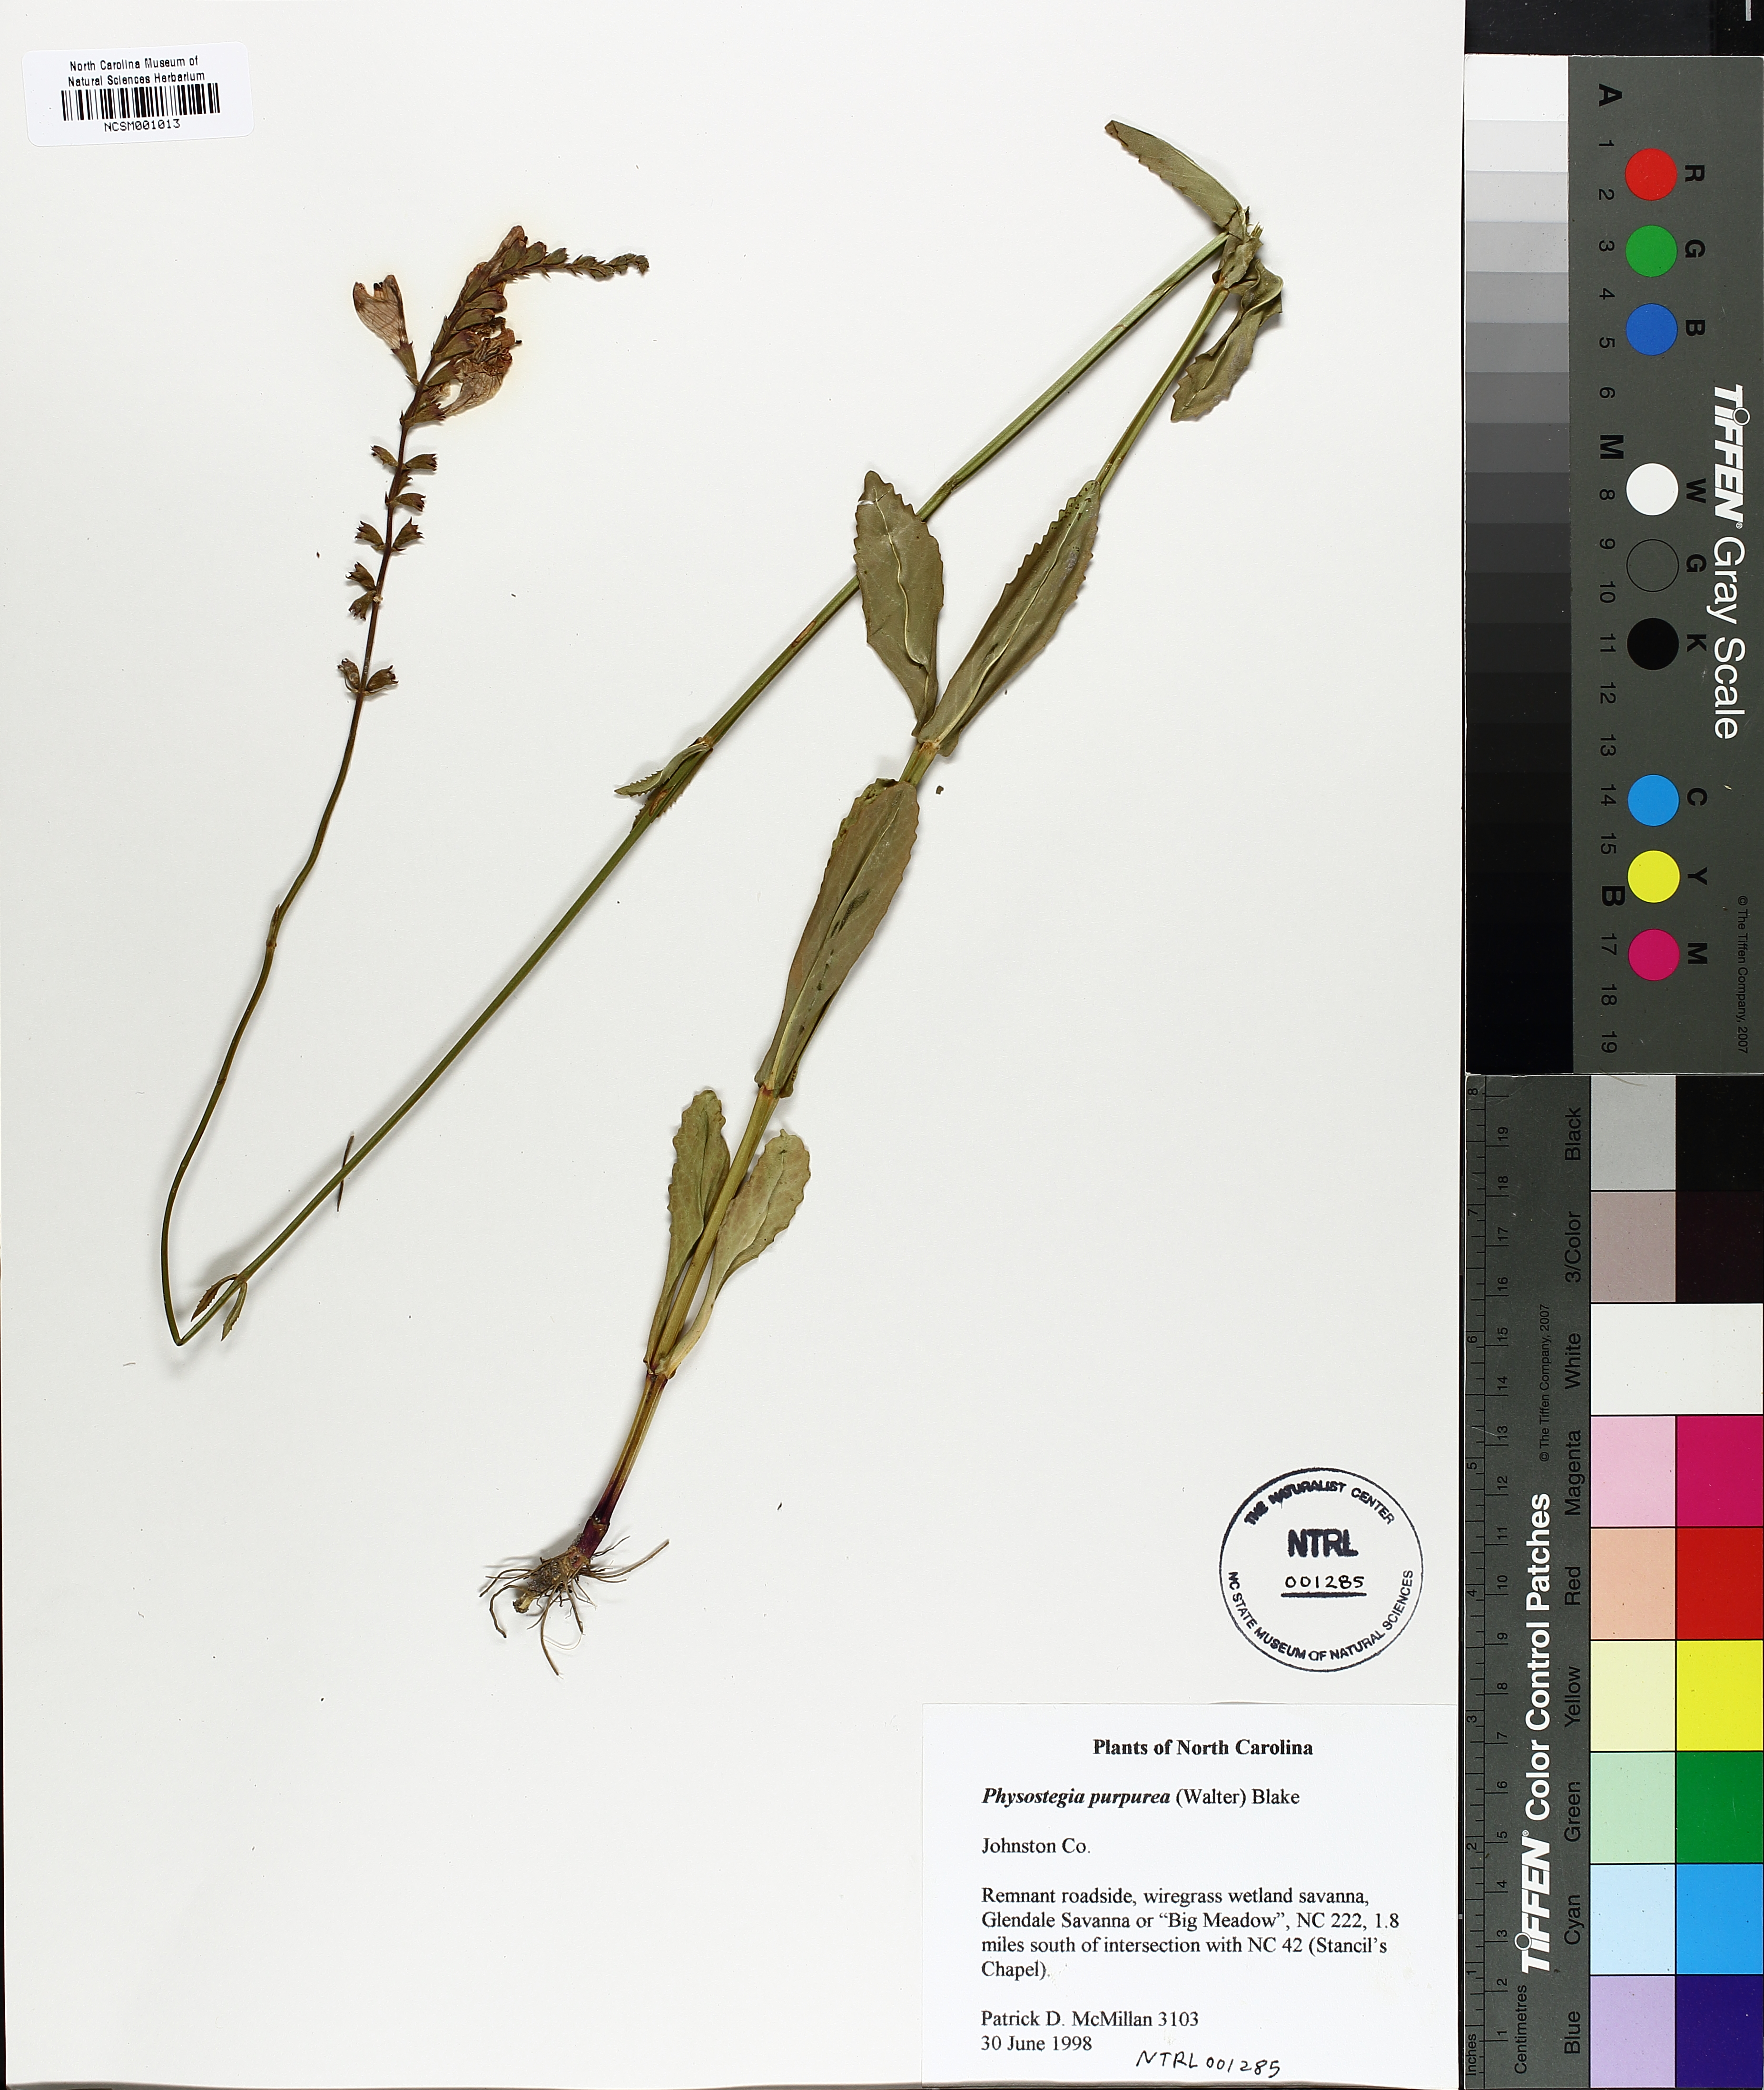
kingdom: Plantae
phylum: Tracheophyta
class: Magnoliopsida
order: Lamiales
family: Lamiaceae
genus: Physostegia
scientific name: Physostegia purpurea
